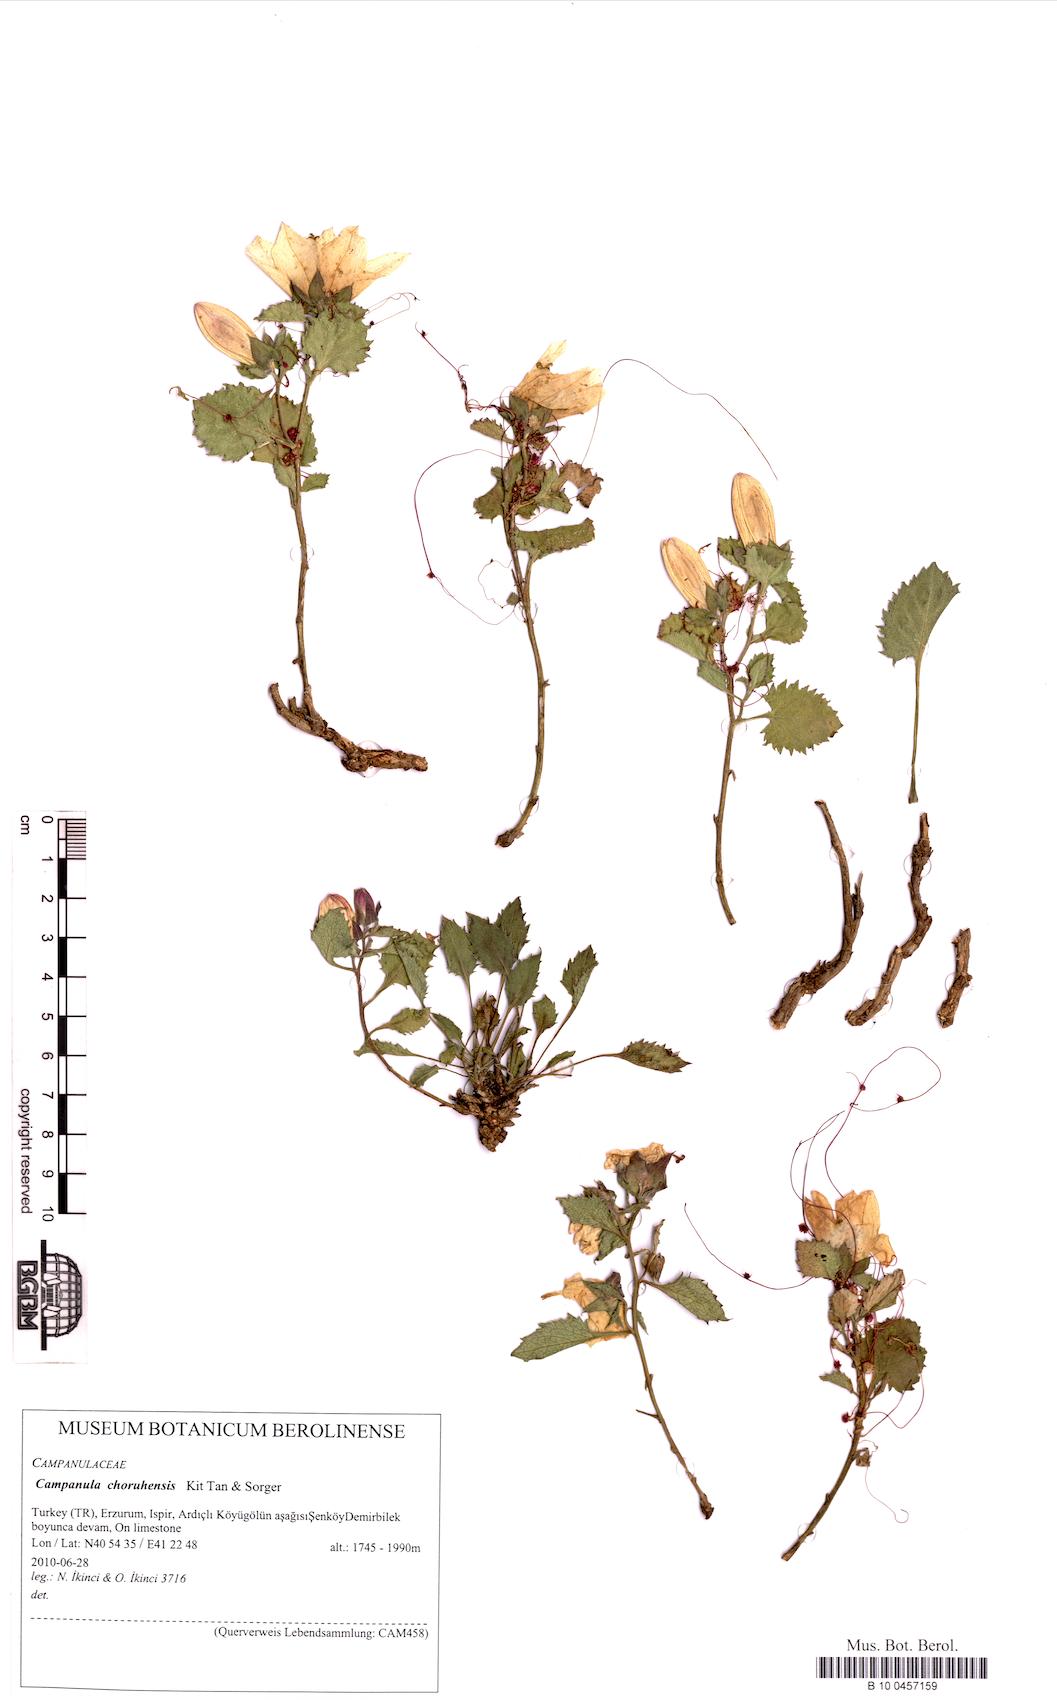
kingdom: Plantae
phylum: Tracheophyta
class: Magnoliopsida
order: Asterales
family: Campanulaceae
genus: Campanula
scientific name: Campanula choruhensis
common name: Choruhian bellflower
